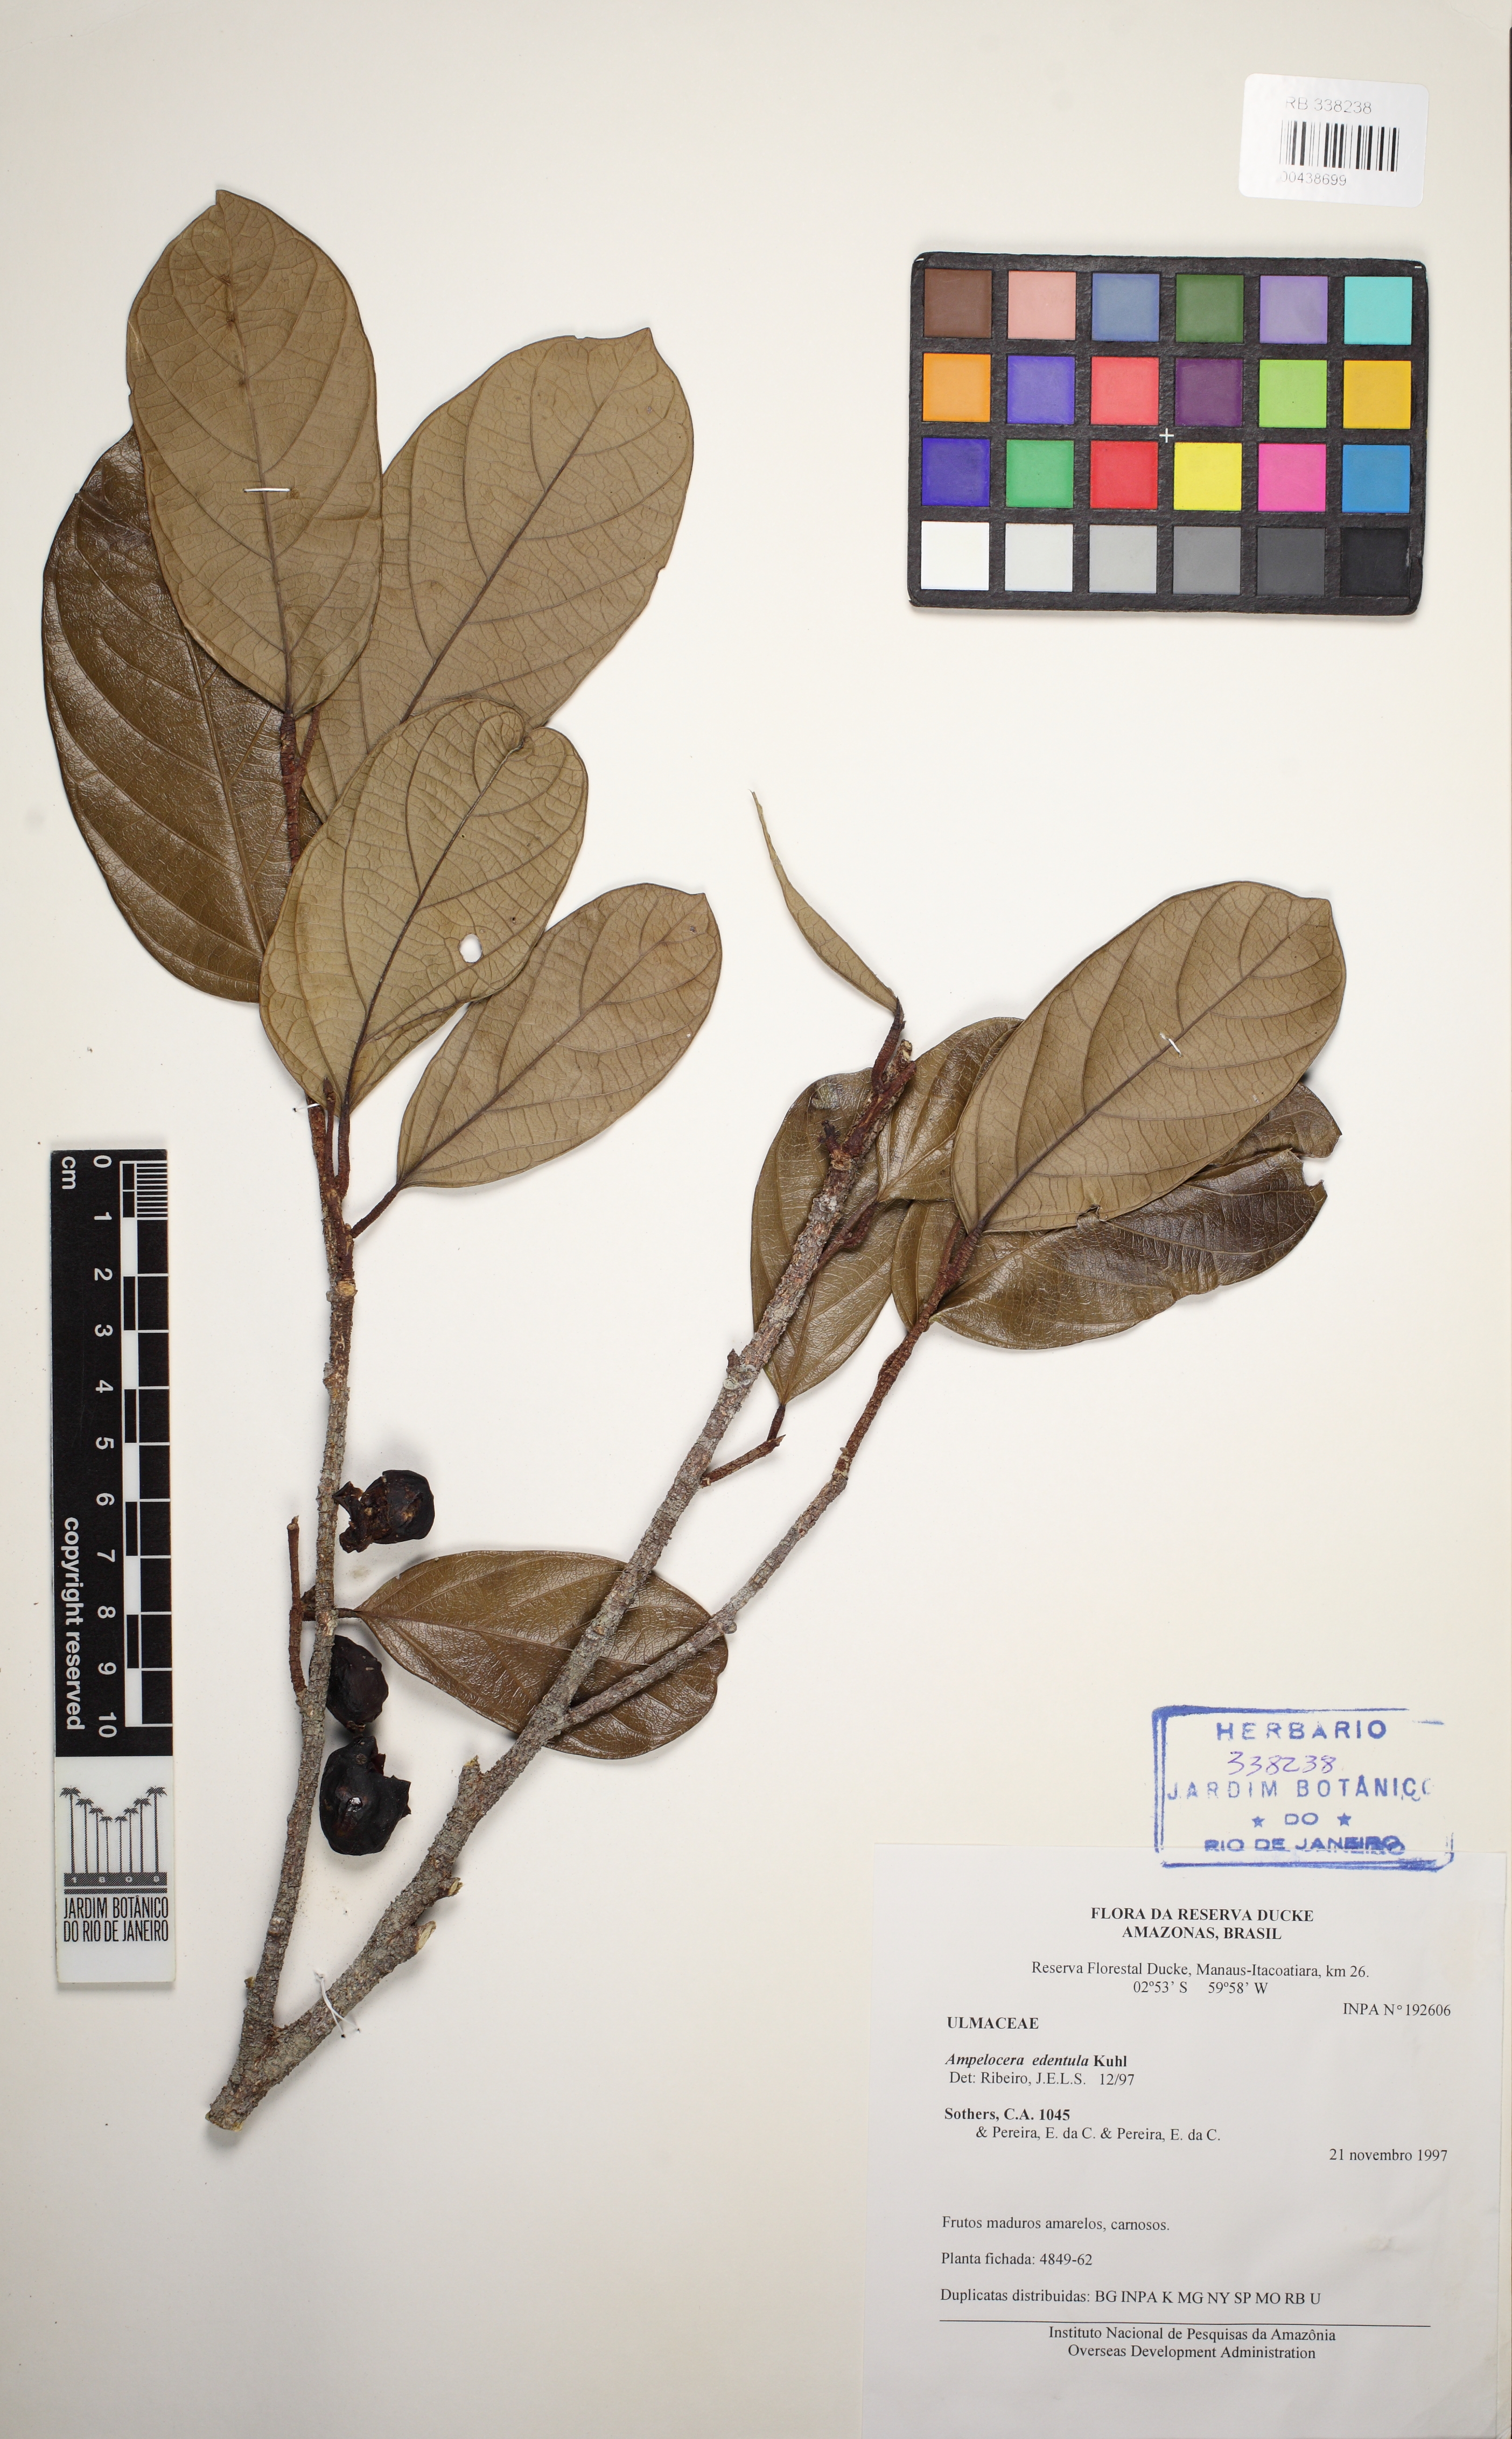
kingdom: Plantae
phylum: Tracheophyta
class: Magnoliopsida
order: Rosales
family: Cannabaceae
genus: Ampelocera
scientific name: Ampelocera edentula
